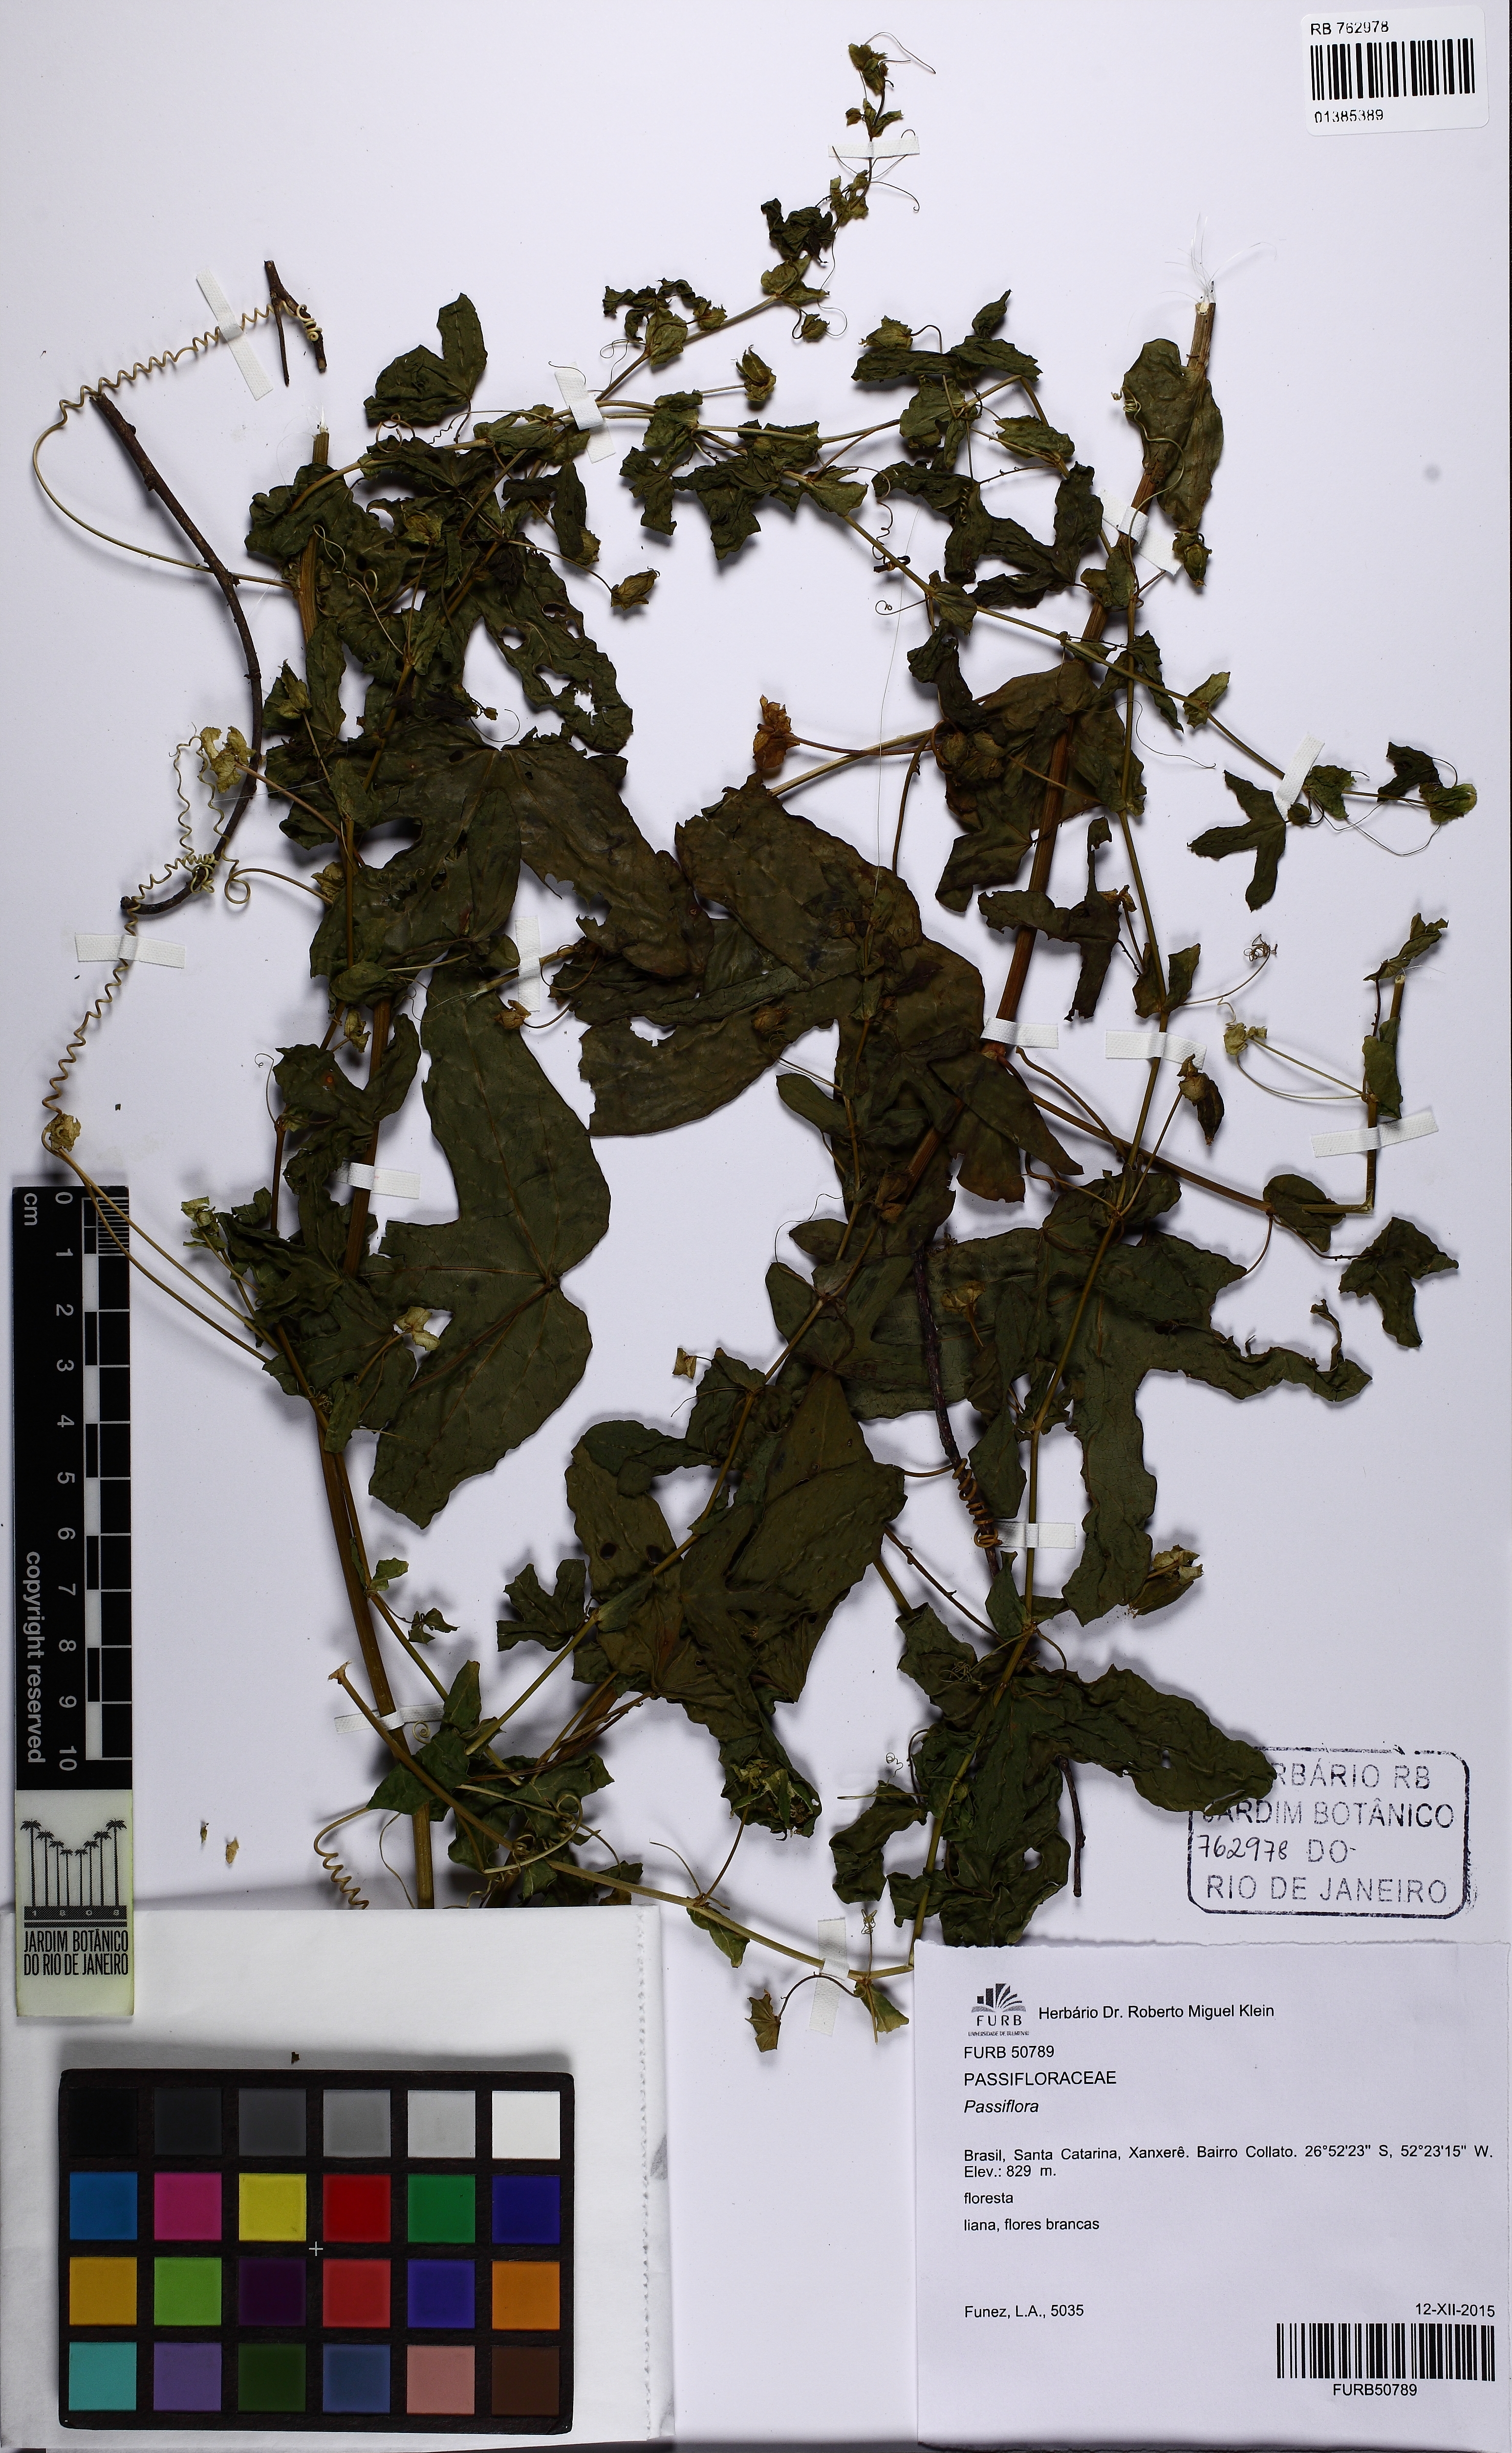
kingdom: Plantae
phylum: Tracheophyta
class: Magnoliopsida
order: Malpighiales
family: Passifloraceae
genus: Passiflora
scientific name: Passiflora
